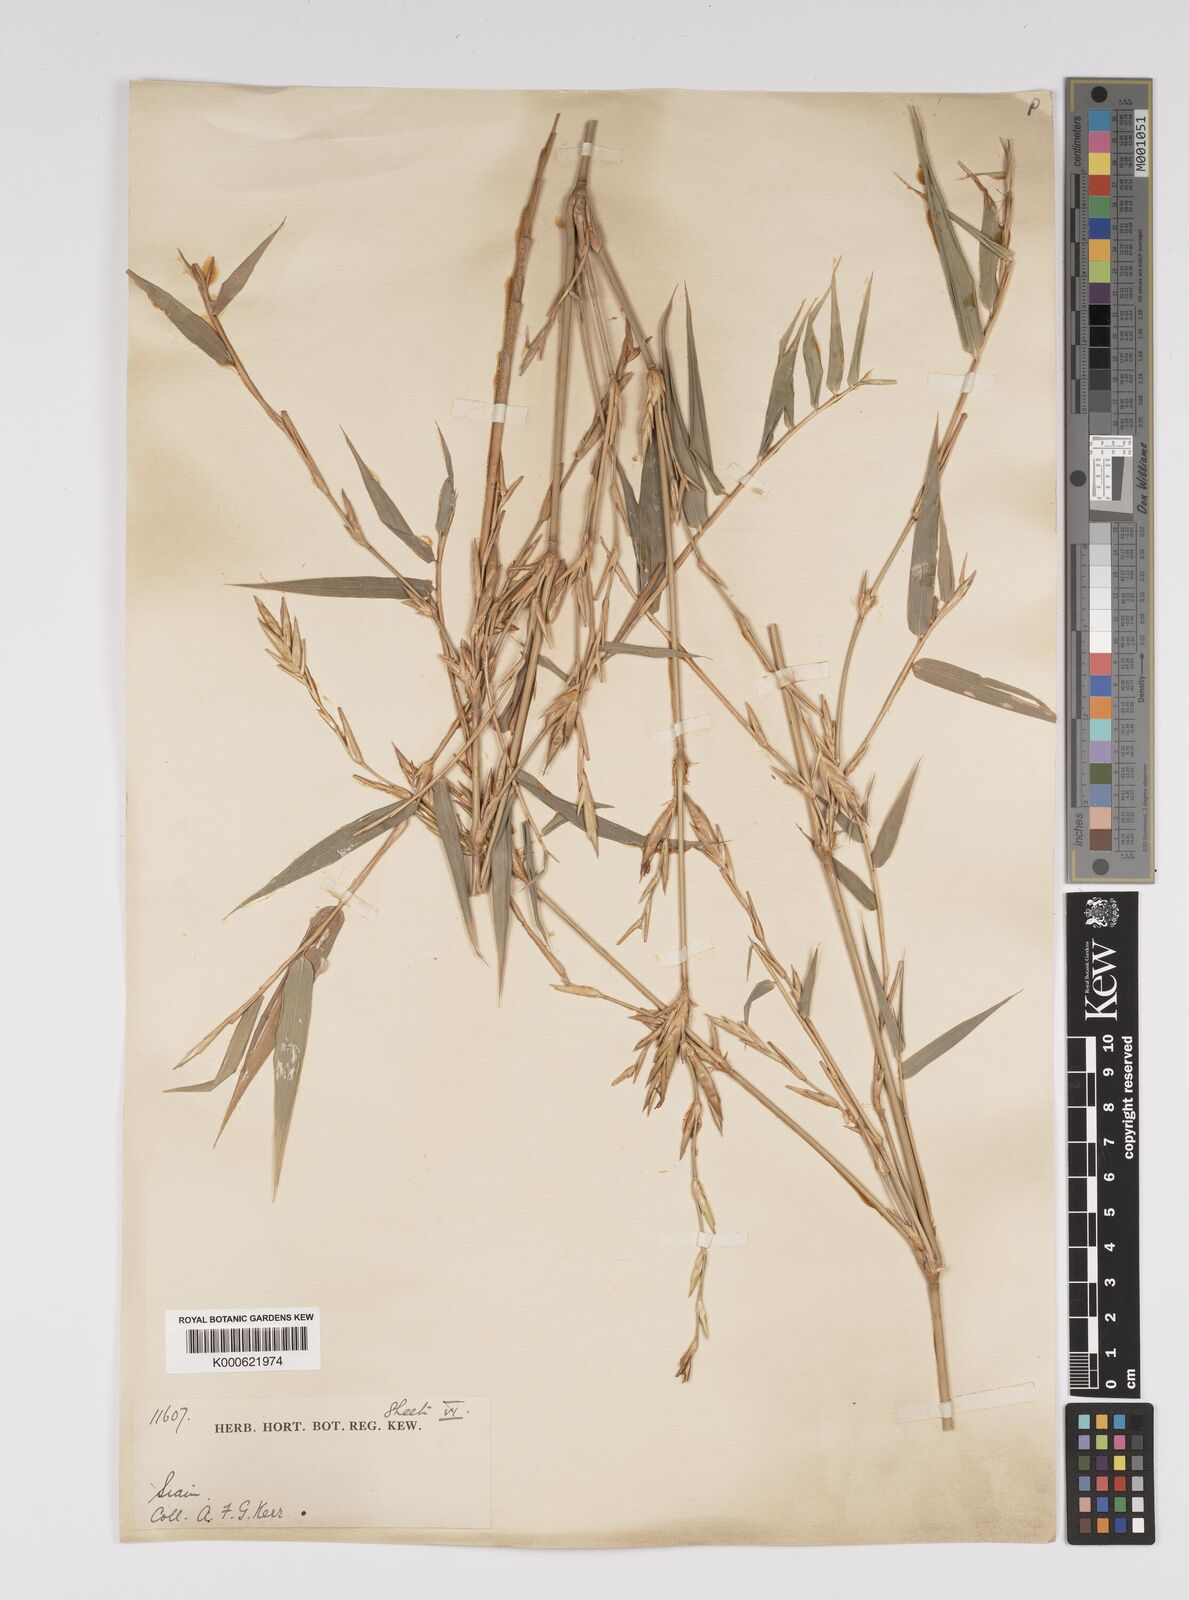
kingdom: Plantae
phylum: Tracheophyta
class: Liliopsida
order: Poales
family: Poaceae
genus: Bambusa
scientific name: Bambusa
